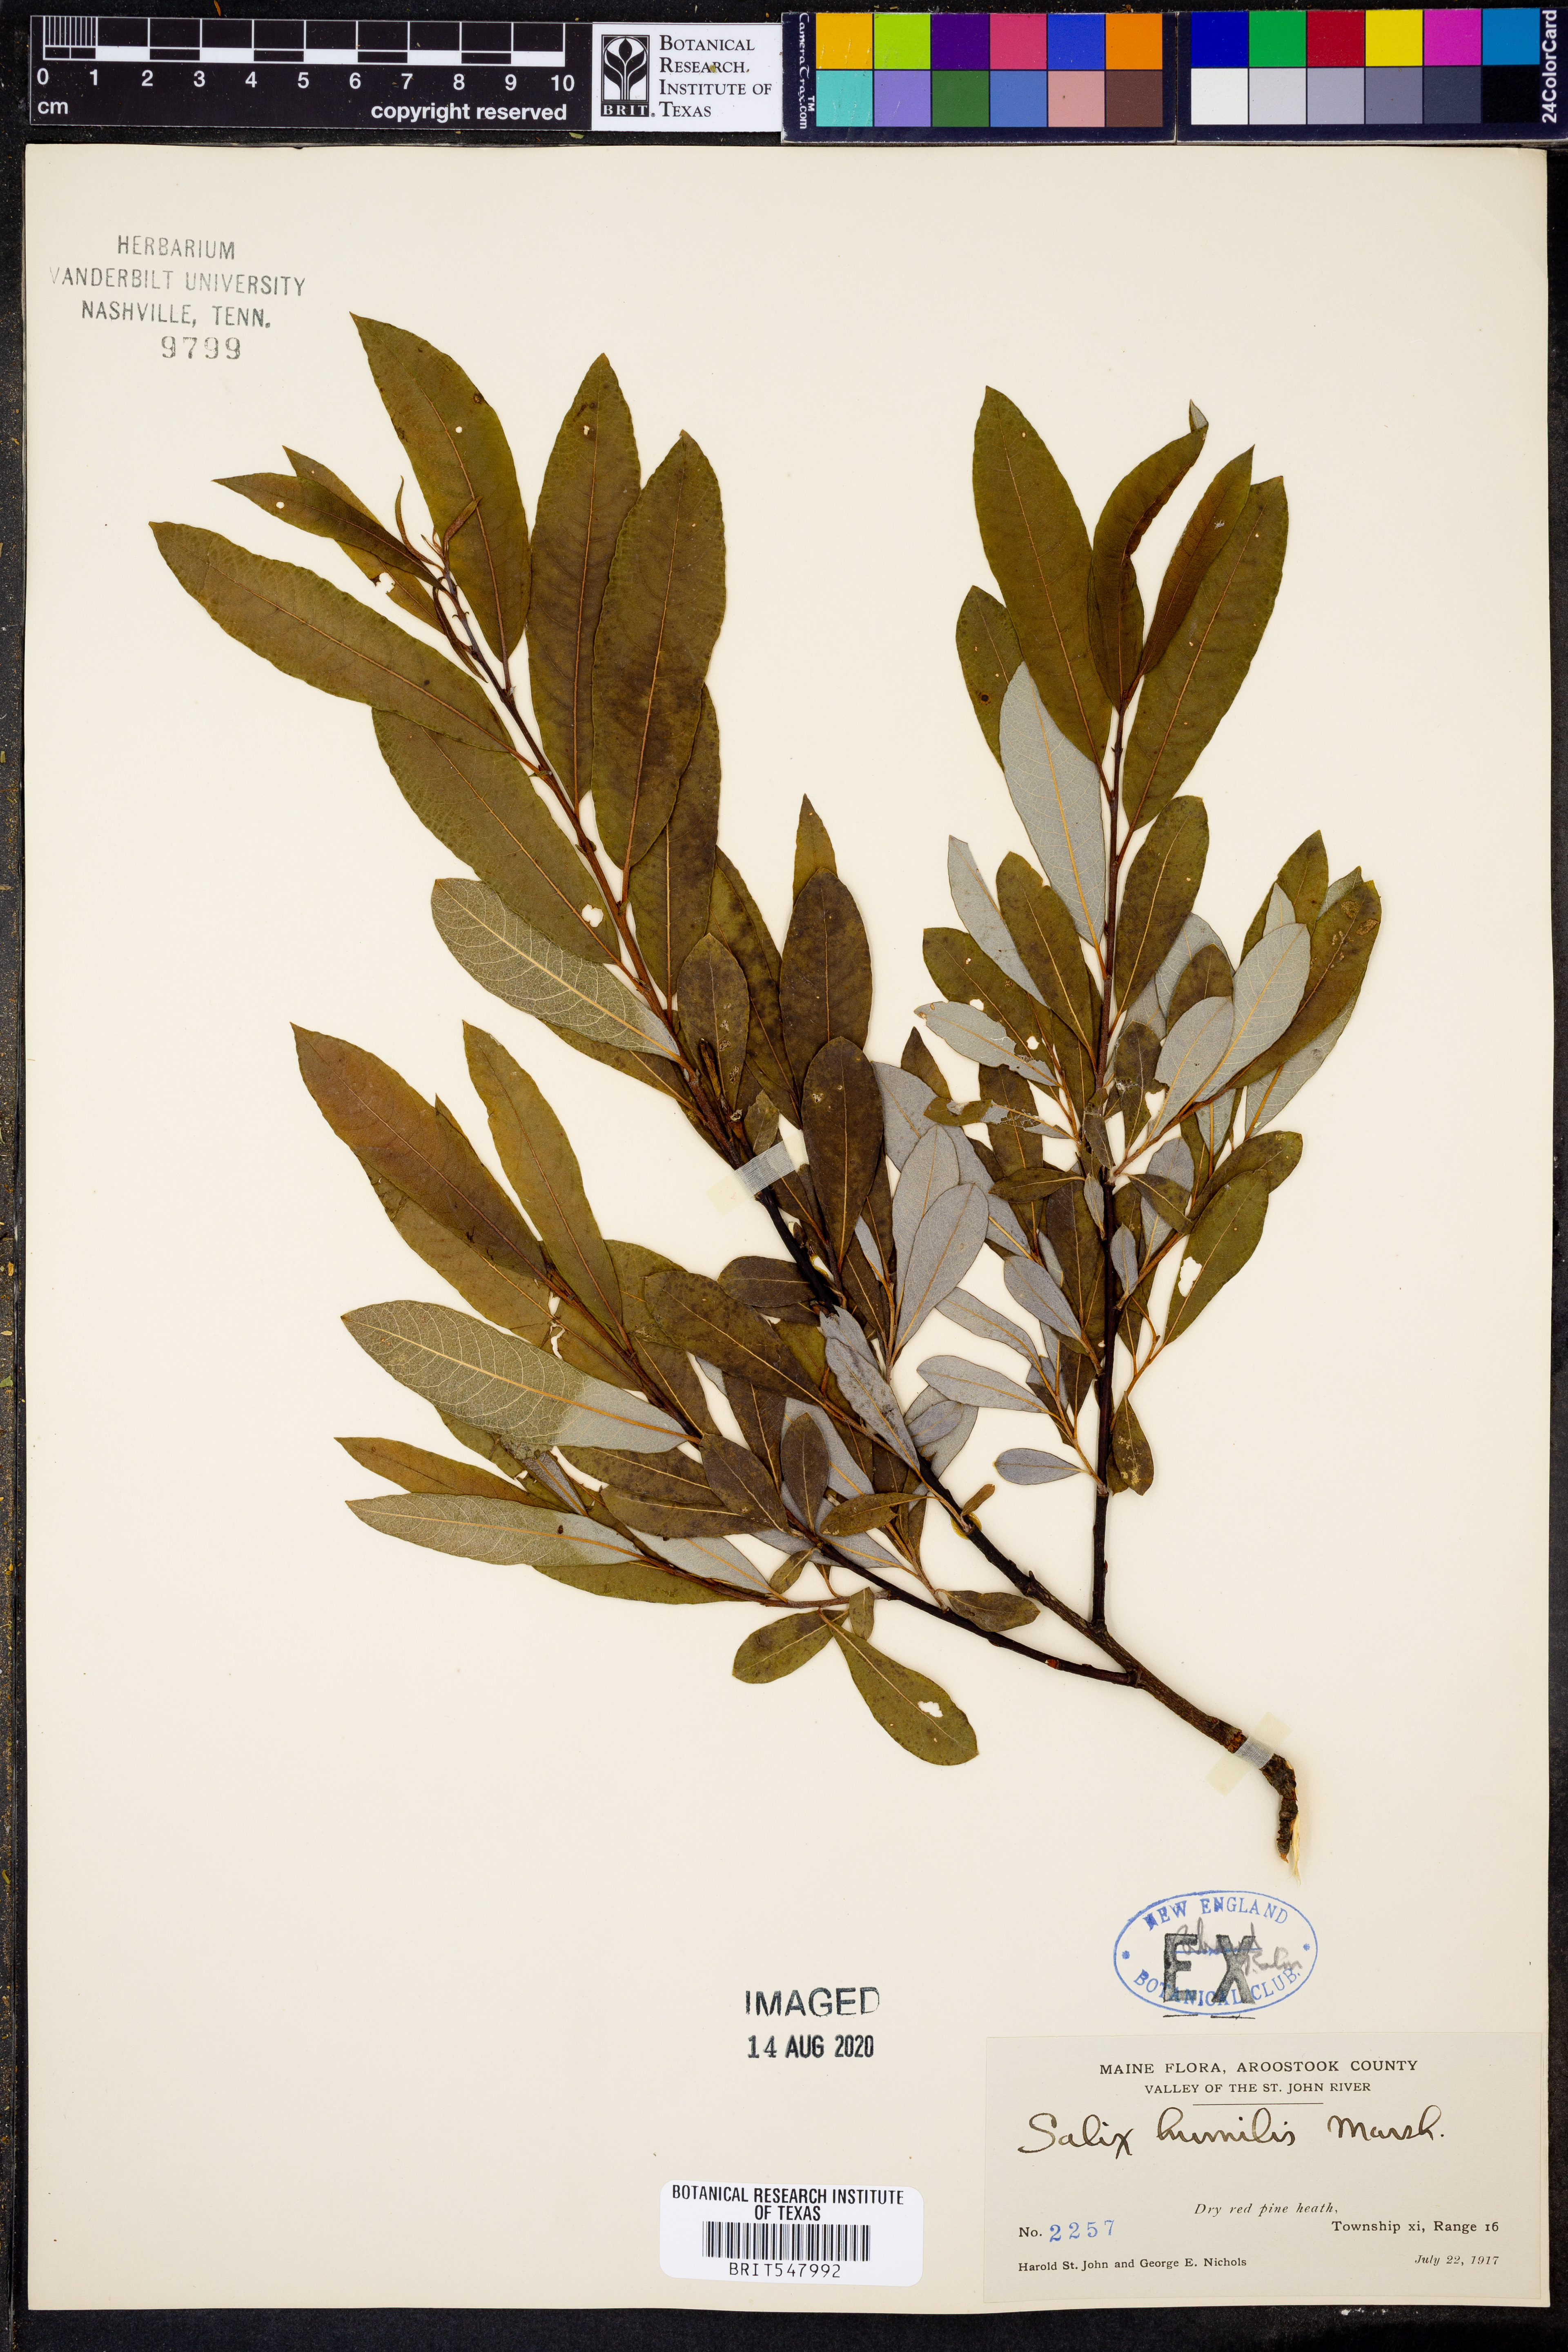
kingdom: Plantae
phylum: Tracheophyta
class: Magnoliopsida
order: Malpighiales
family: Salicaceae
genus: Salix
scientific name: Salix humilis
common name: Prairie willow
